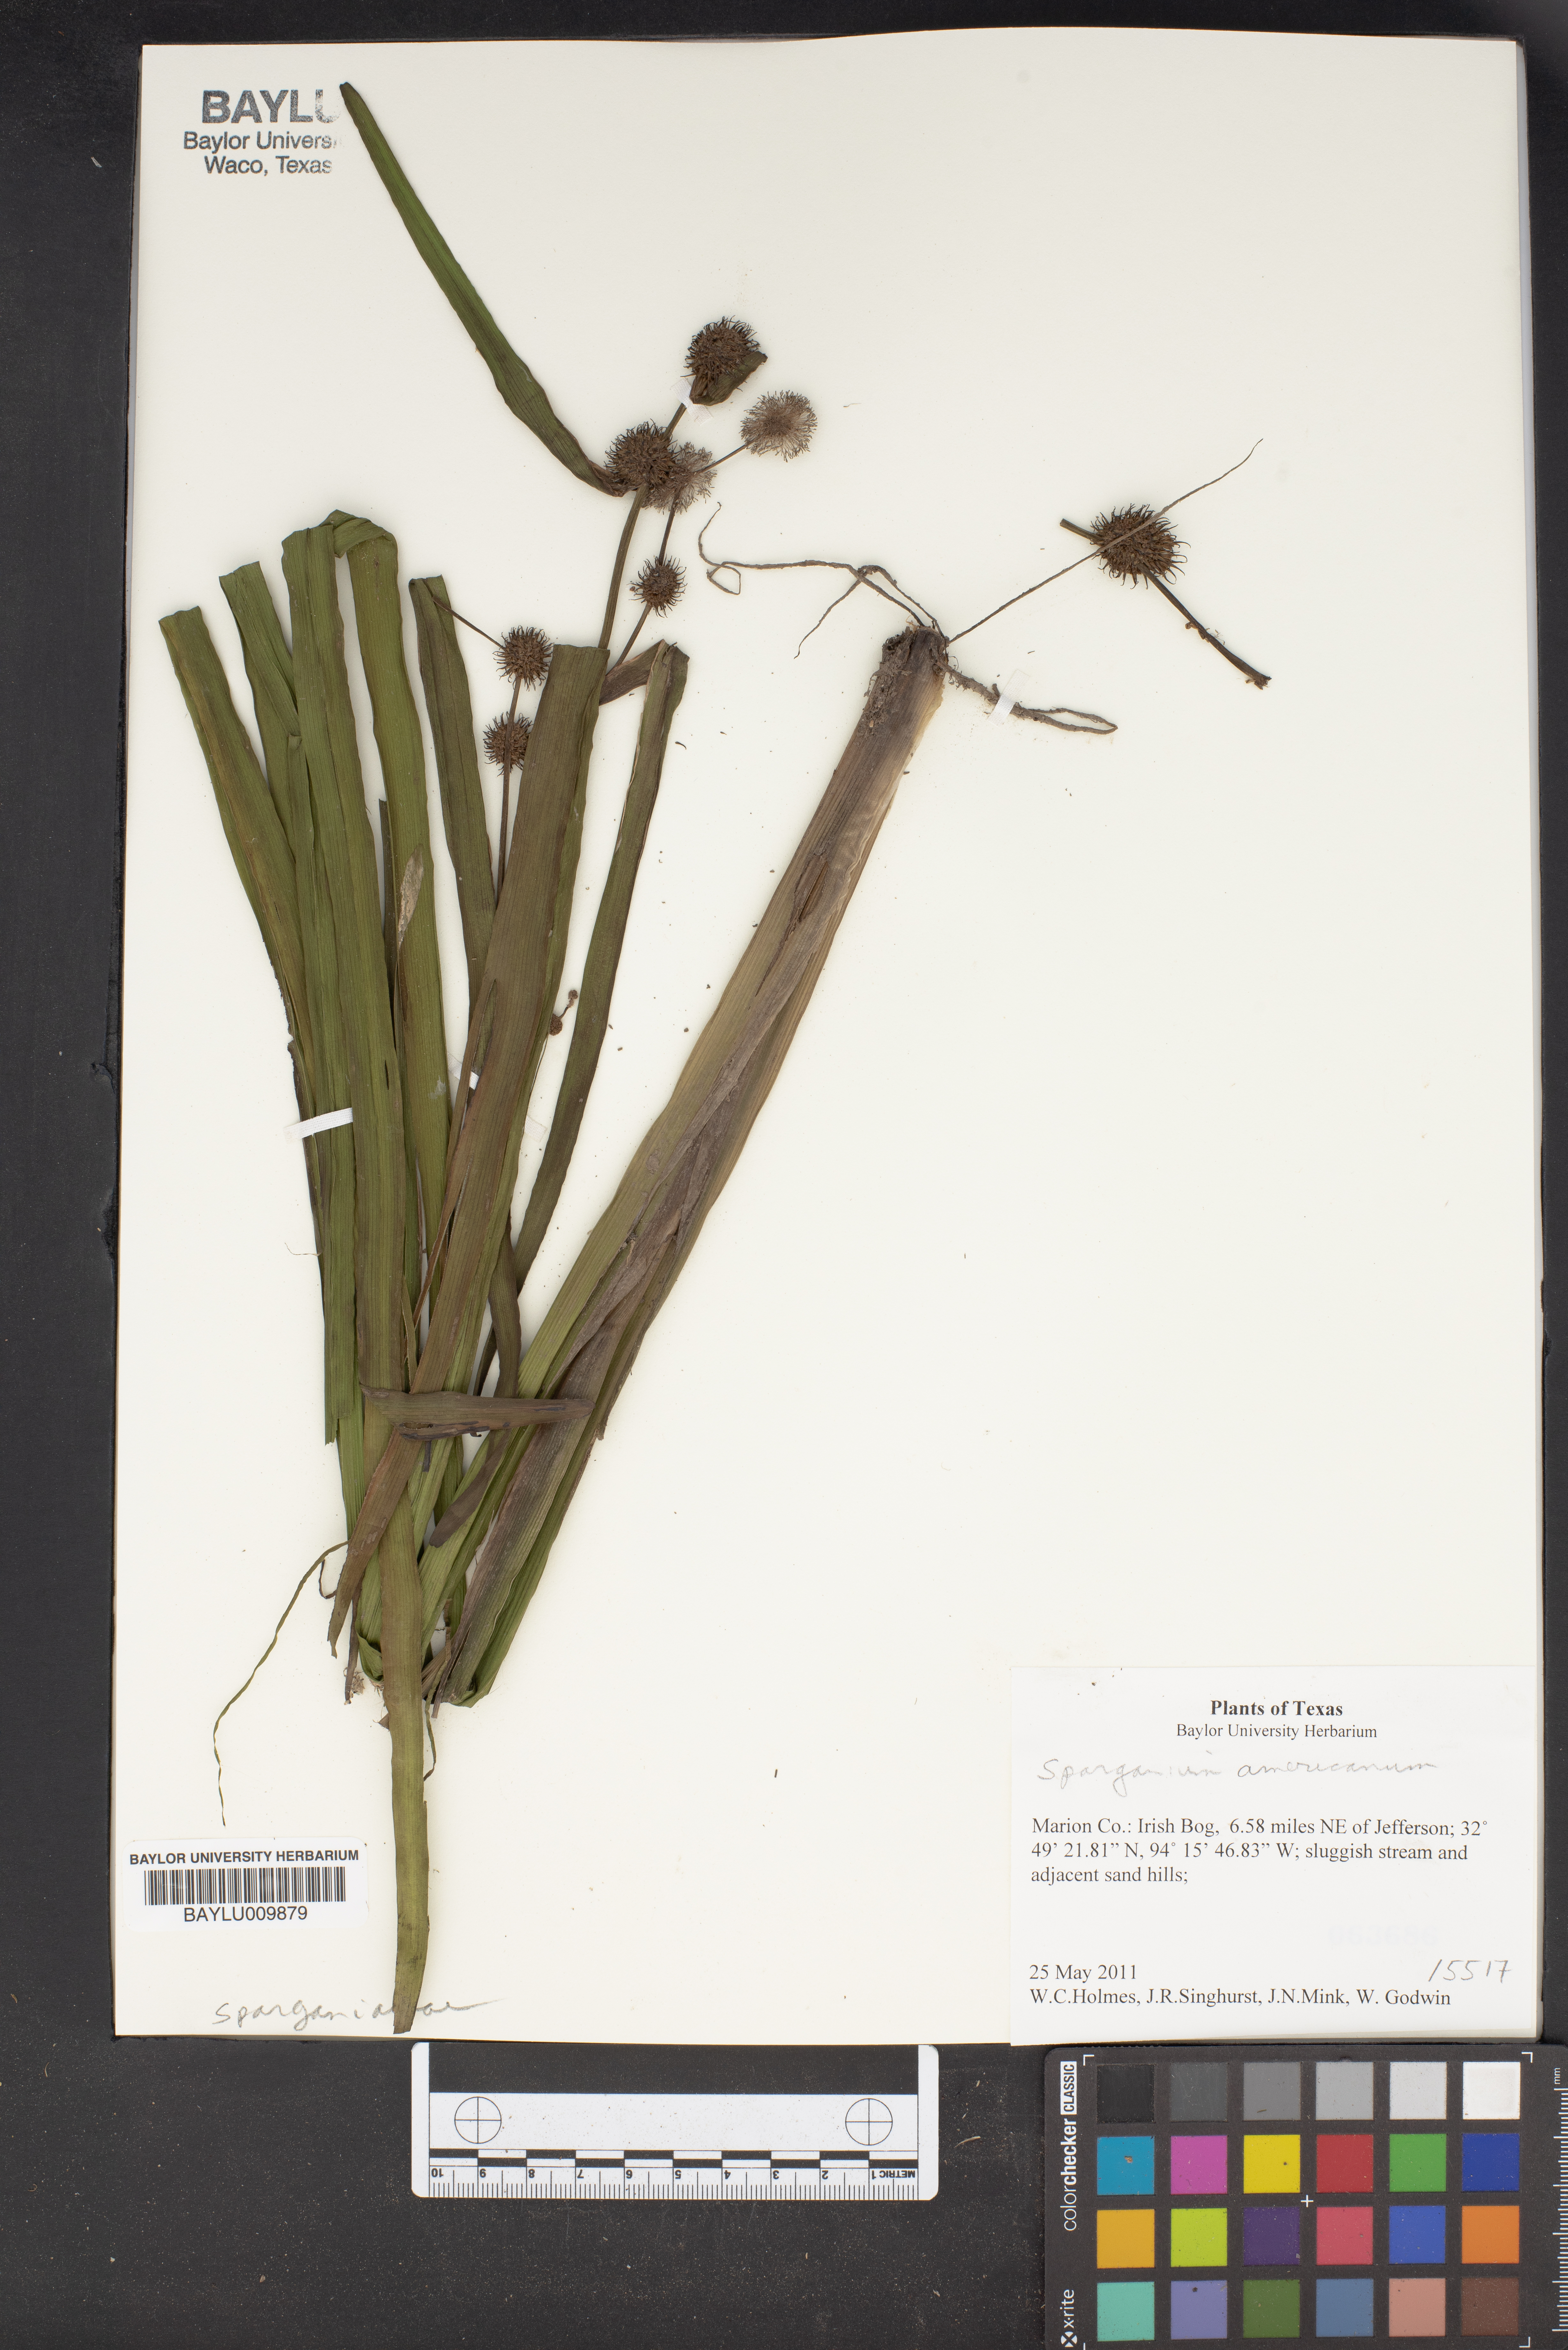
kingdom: Plantae
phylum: Tracheophyta
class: Liliopsida
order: Poales
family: Typhaceae
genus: Sparganium
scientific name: Sparganium americanum
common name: American burreed
